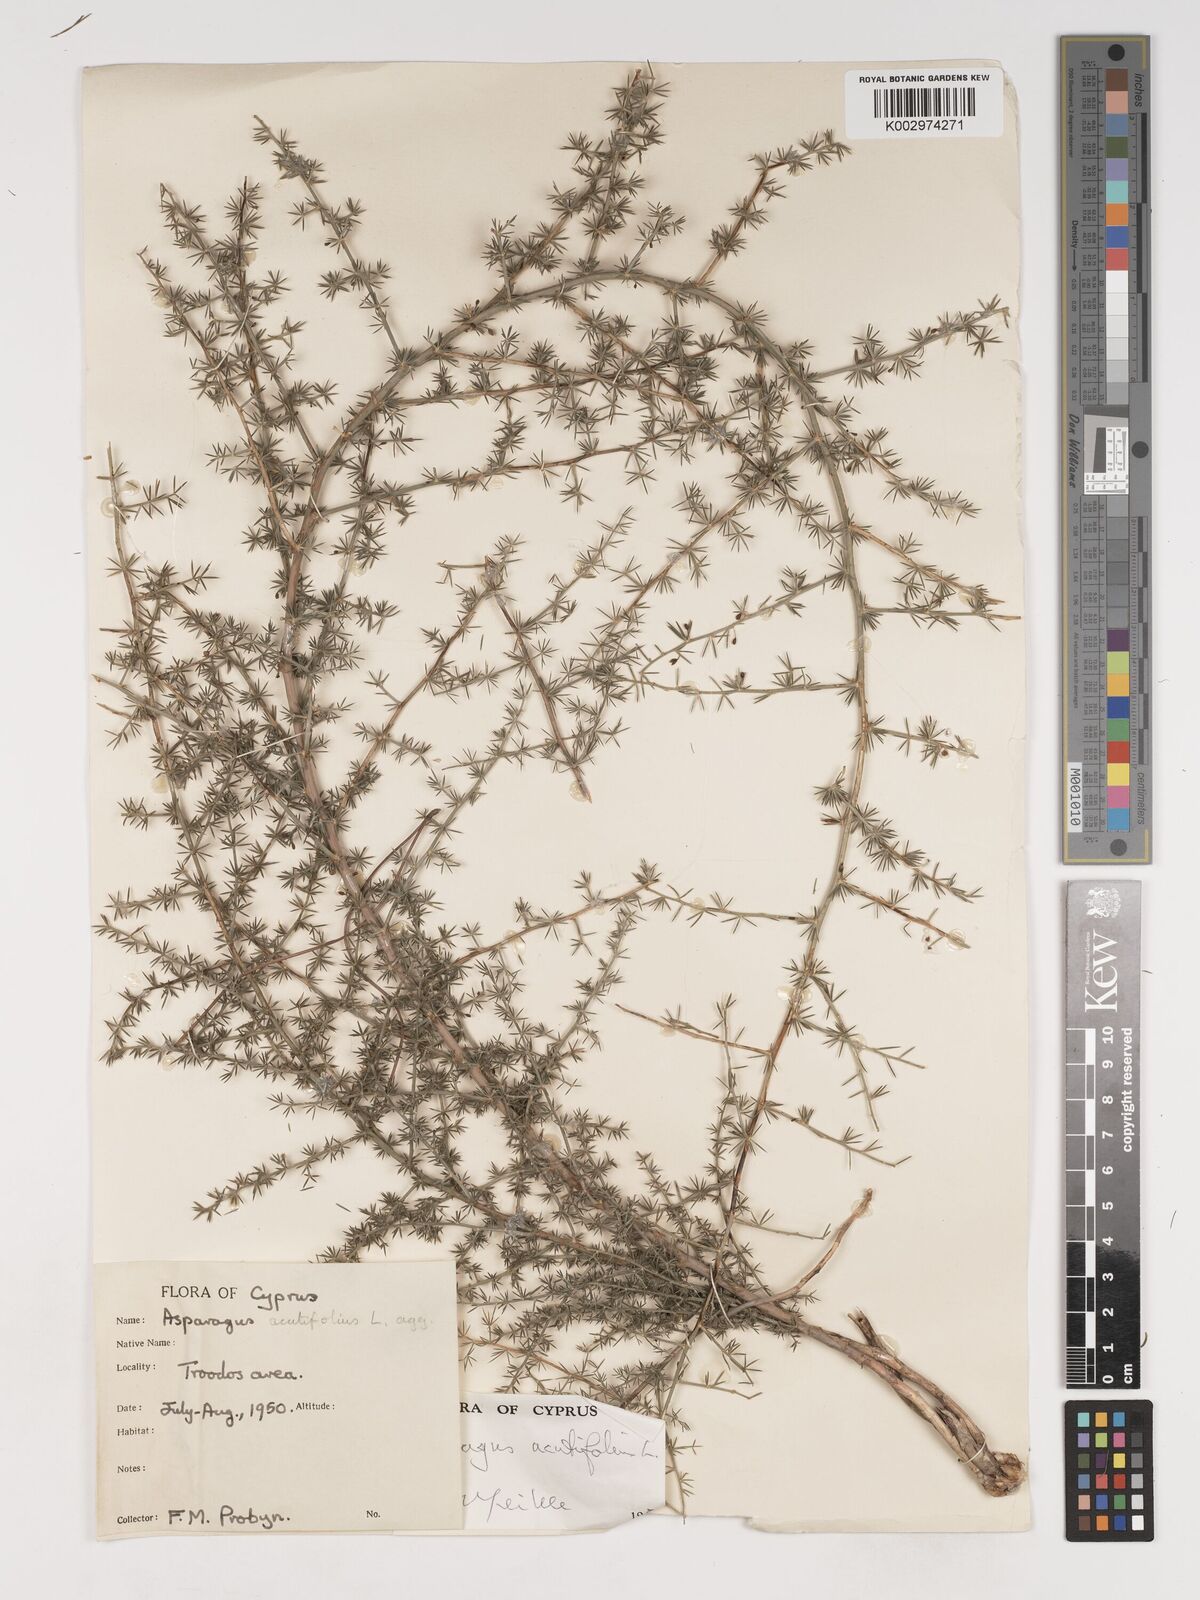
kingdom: Plantae
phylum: Tracheophyta
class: Liliopsida
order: Asparagales
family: Asparagaceae
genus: Asparagus
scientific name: Asparagus acutifolius
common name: Wild asparagus
